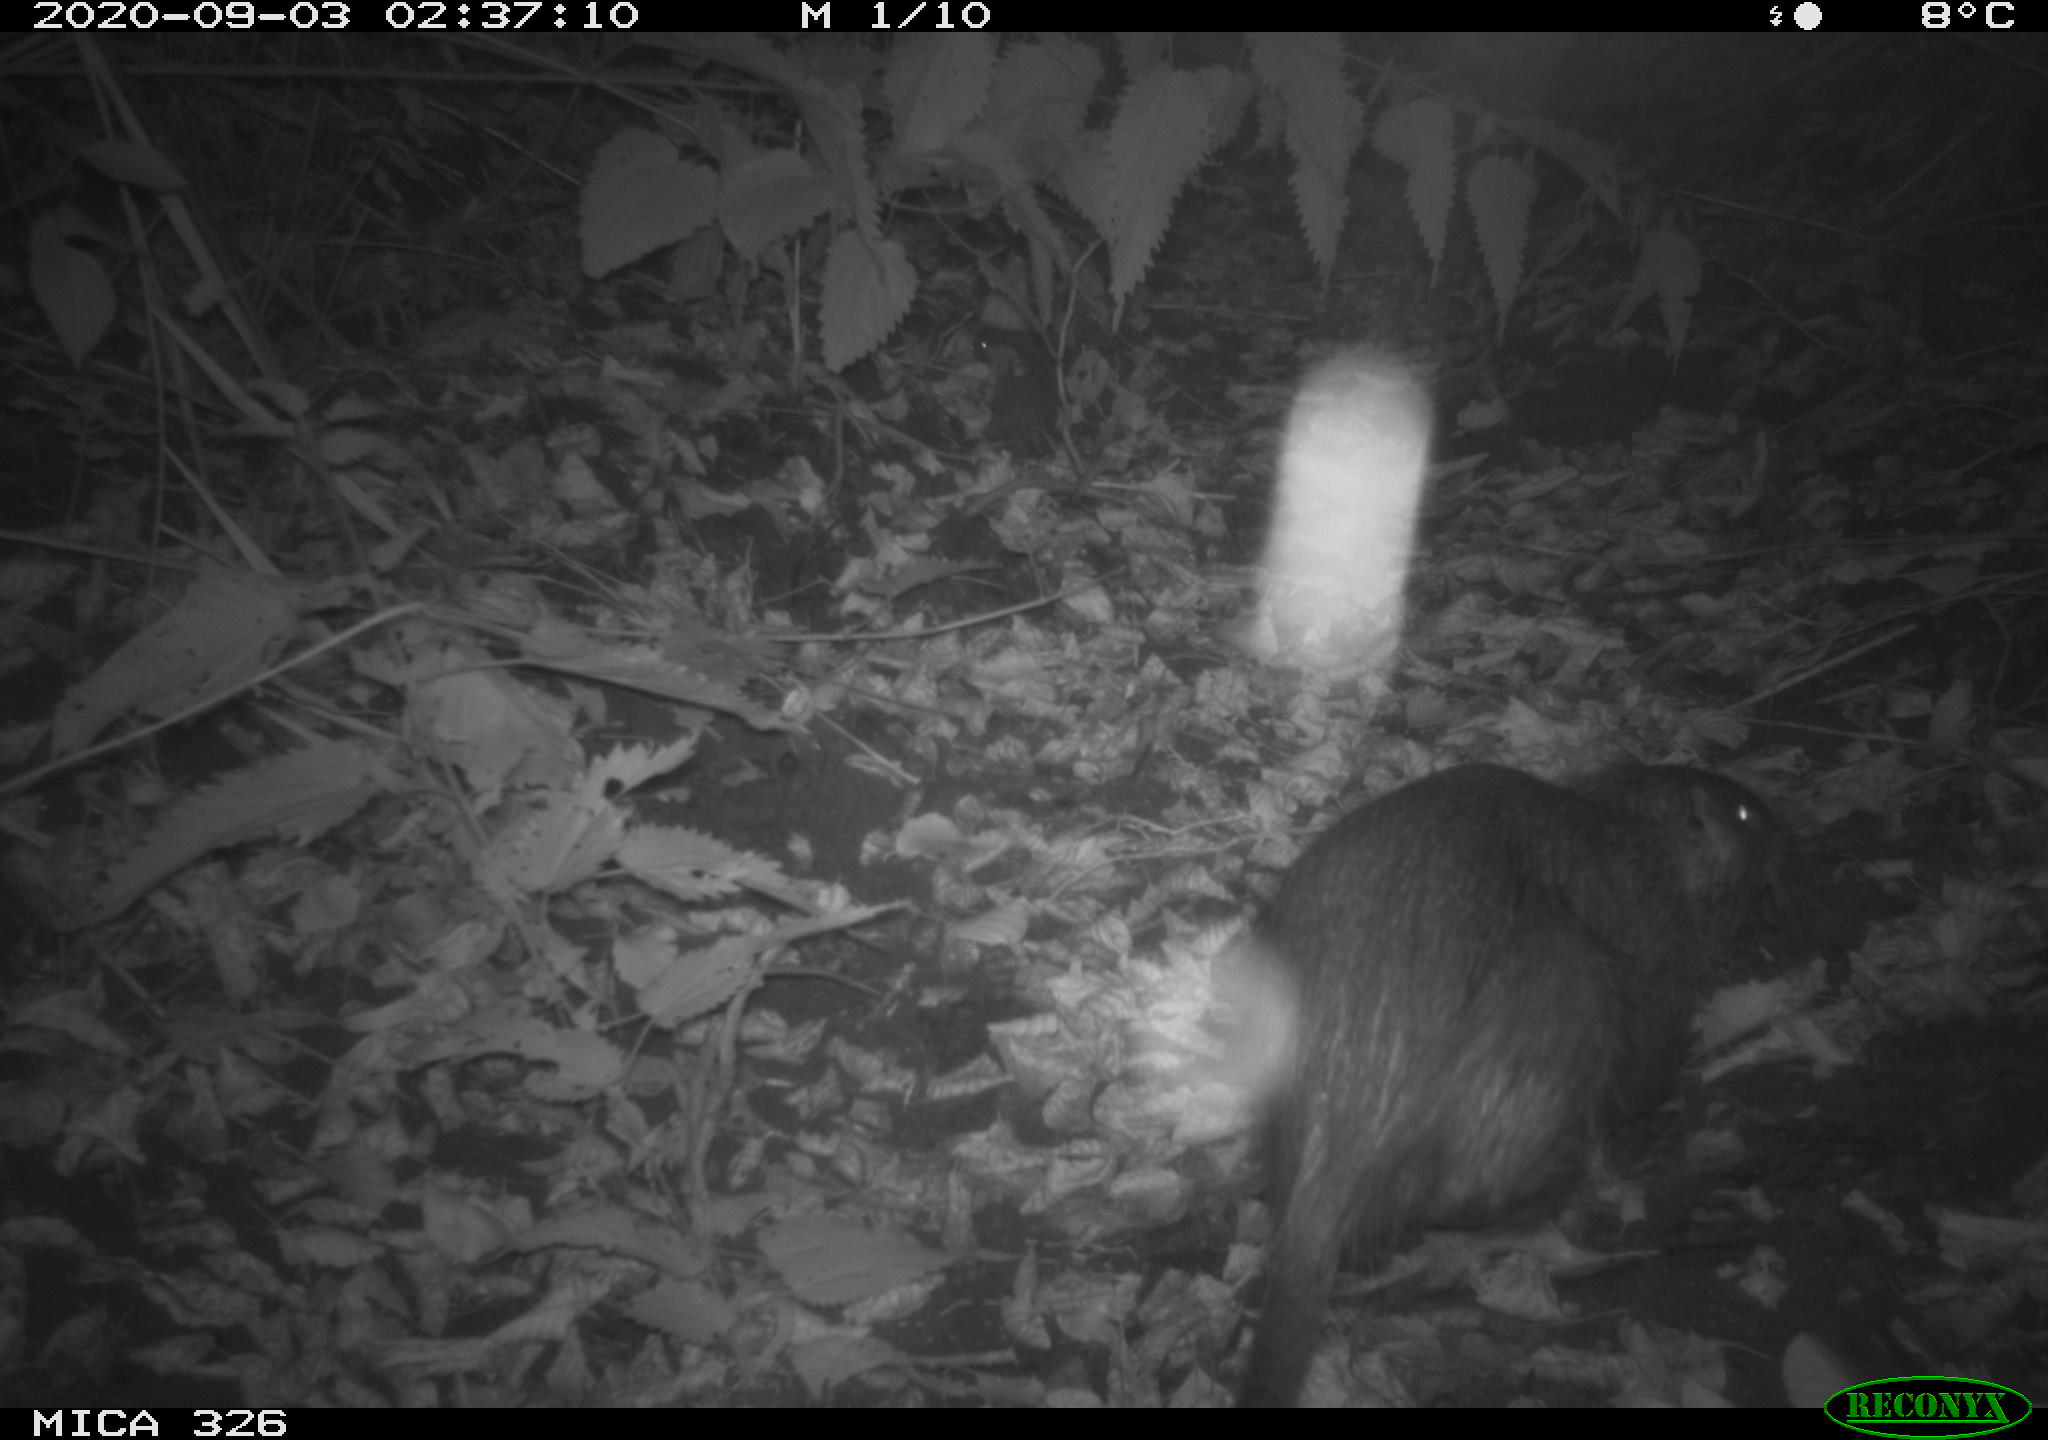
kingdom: Animalia
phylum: Chordata
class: Mammalia
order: Rodentia
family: Myocastoridae
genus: Myocastor
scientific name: Myocastor coypus
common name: Coypu
